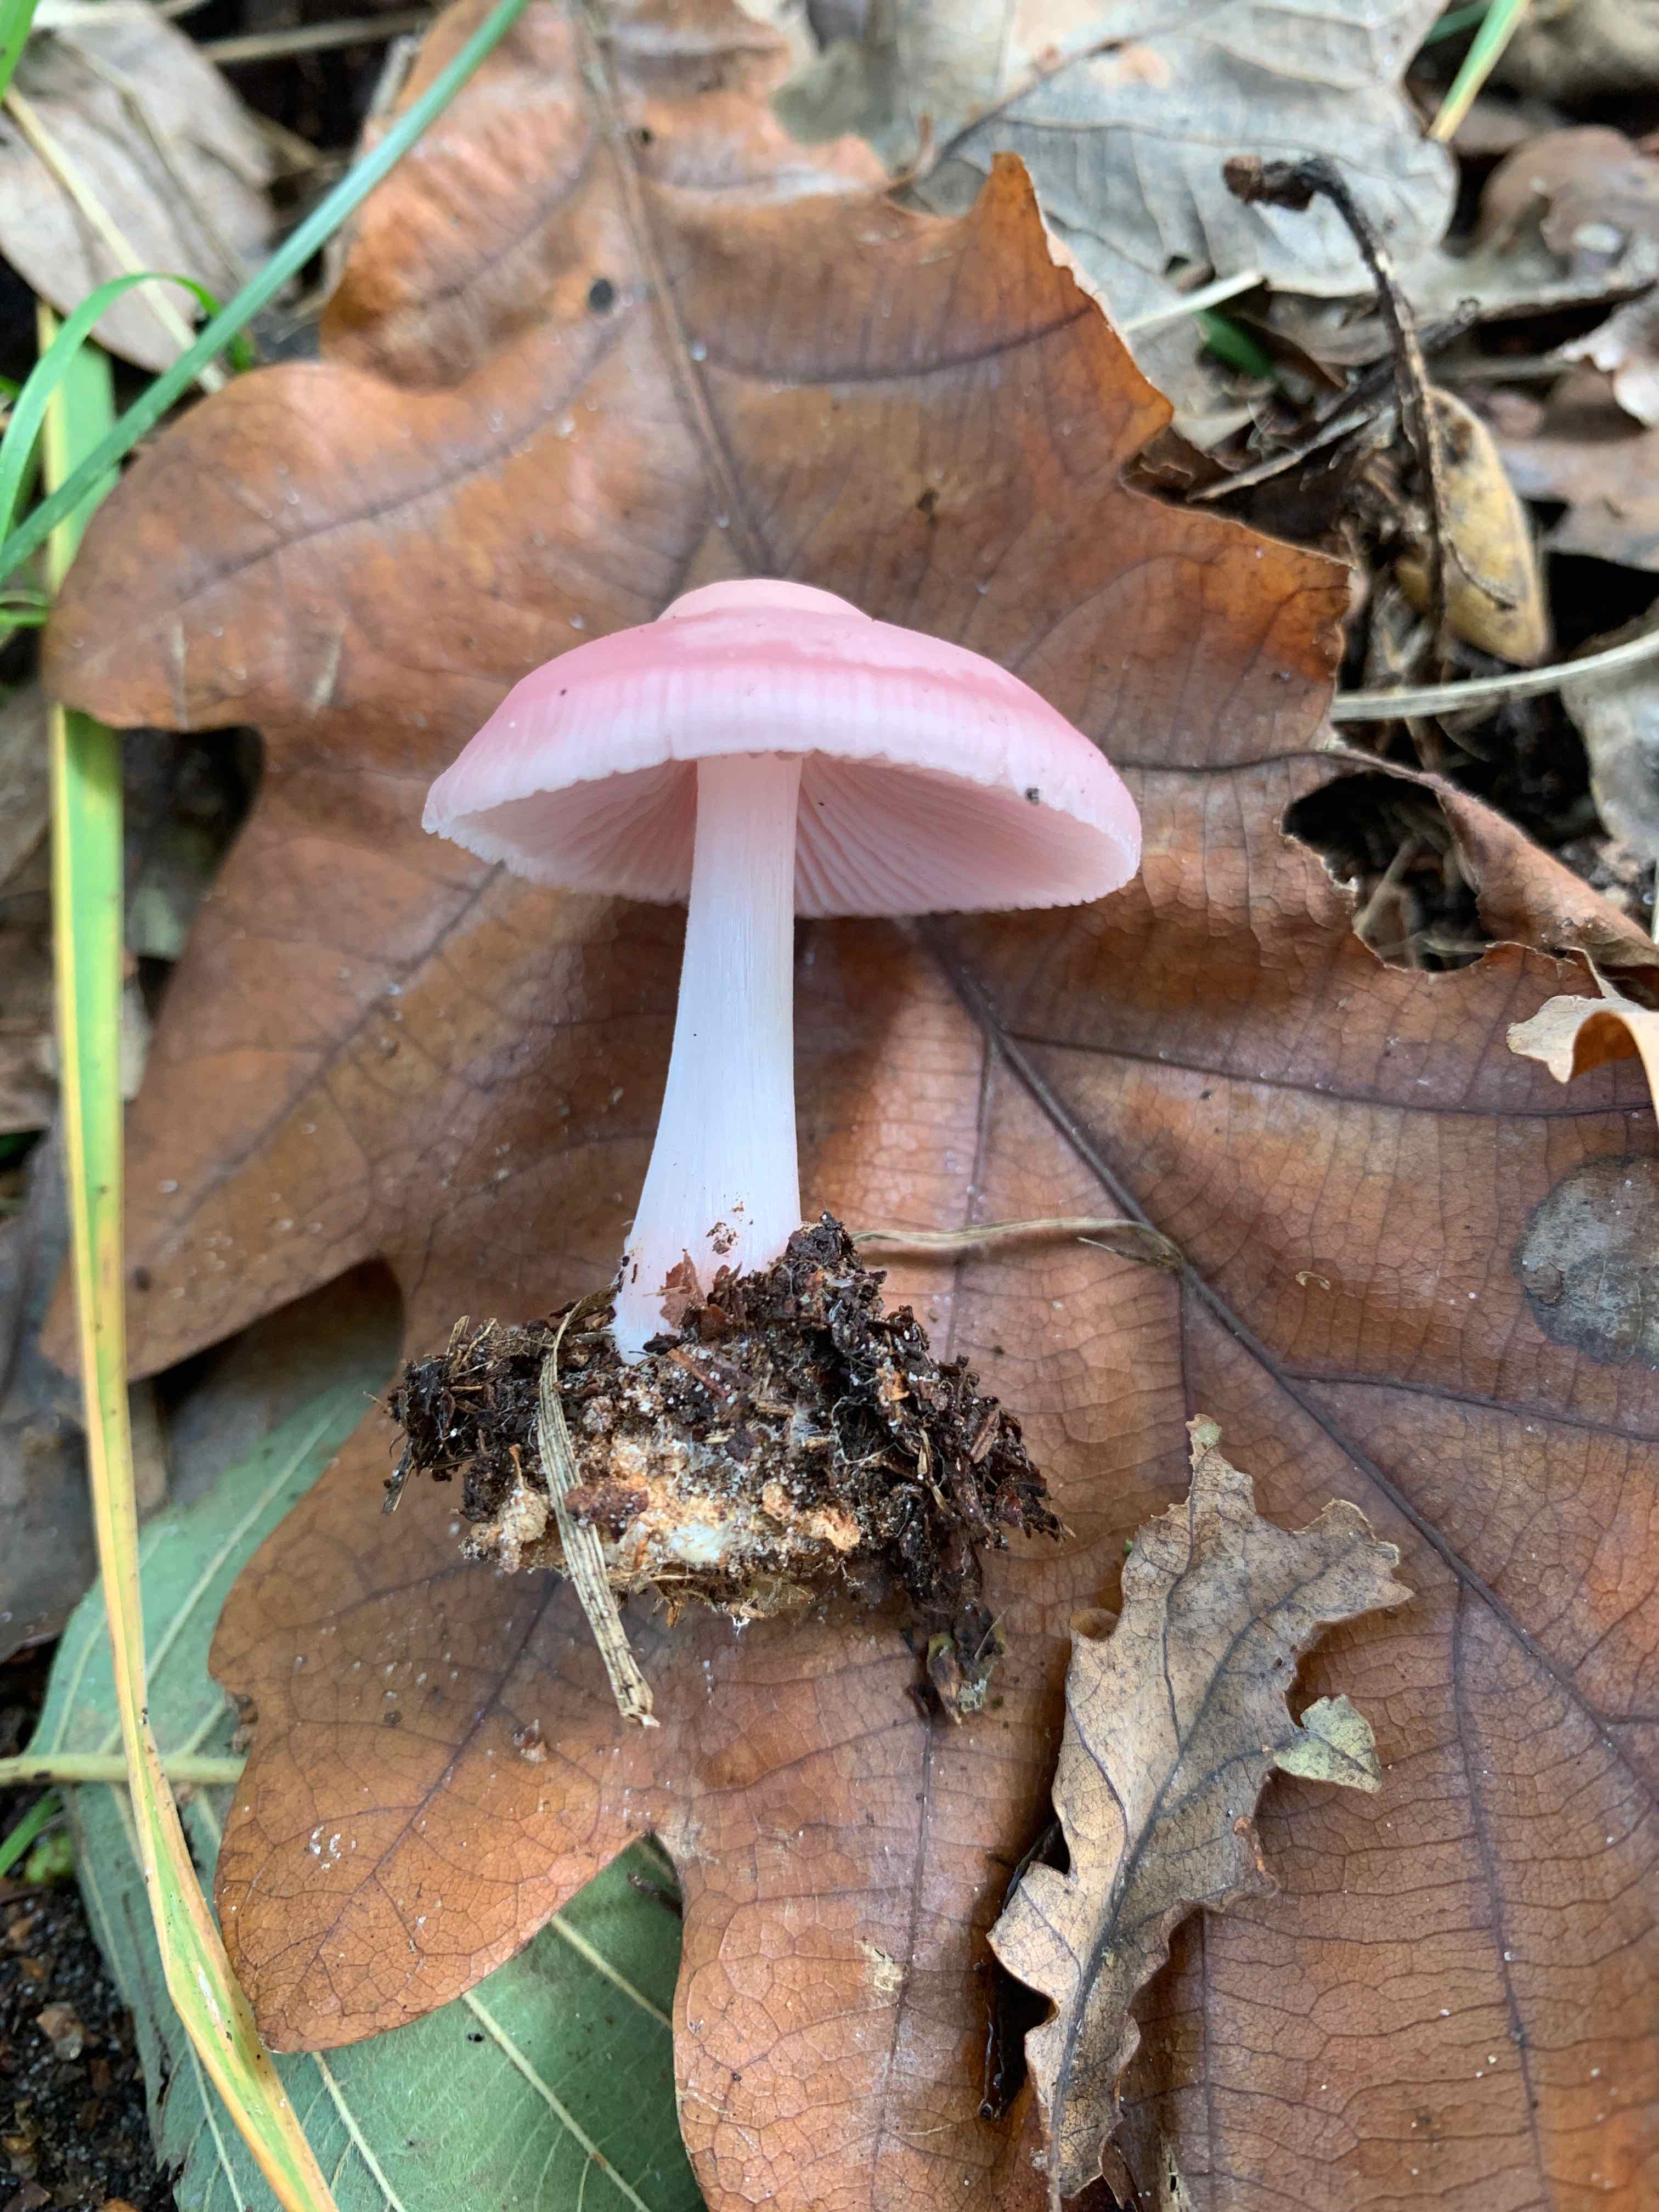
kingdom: Fungi
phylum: Basidiomycota
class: Agaricomycetes
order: Agaricales
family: Mycenaceae
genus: Mycena
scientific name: Mycena rosea
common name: rosa huesvamp
